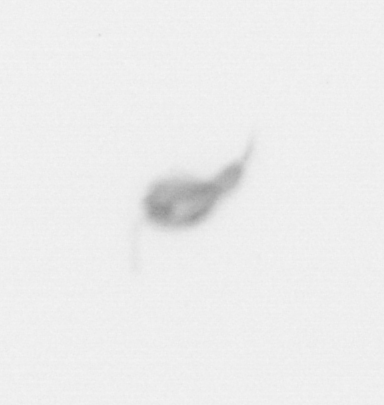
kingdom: Animalia
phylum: Arthropoda
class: Copepoda
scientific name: Copepoda
